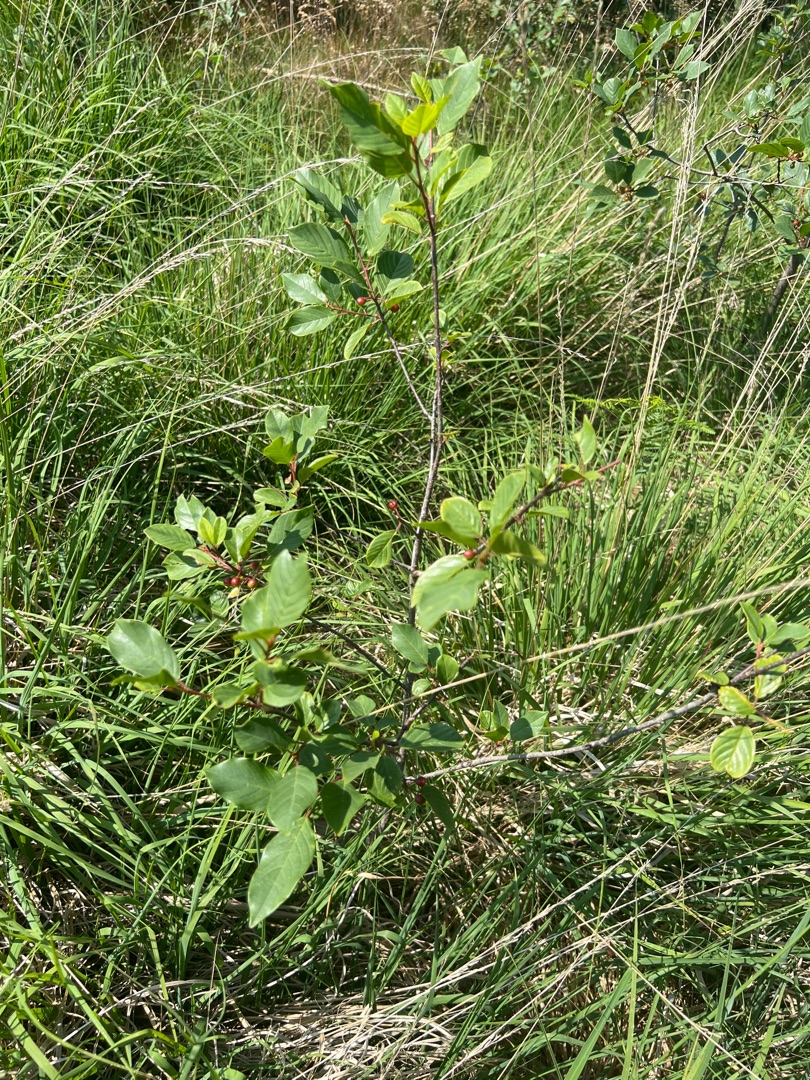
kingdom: Plantae
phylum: Tracheophyta
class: Magnoliopsida
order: Rosales
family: Rhamnaceae
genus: Frangula
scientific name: Frangula alnus
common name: Tørst
